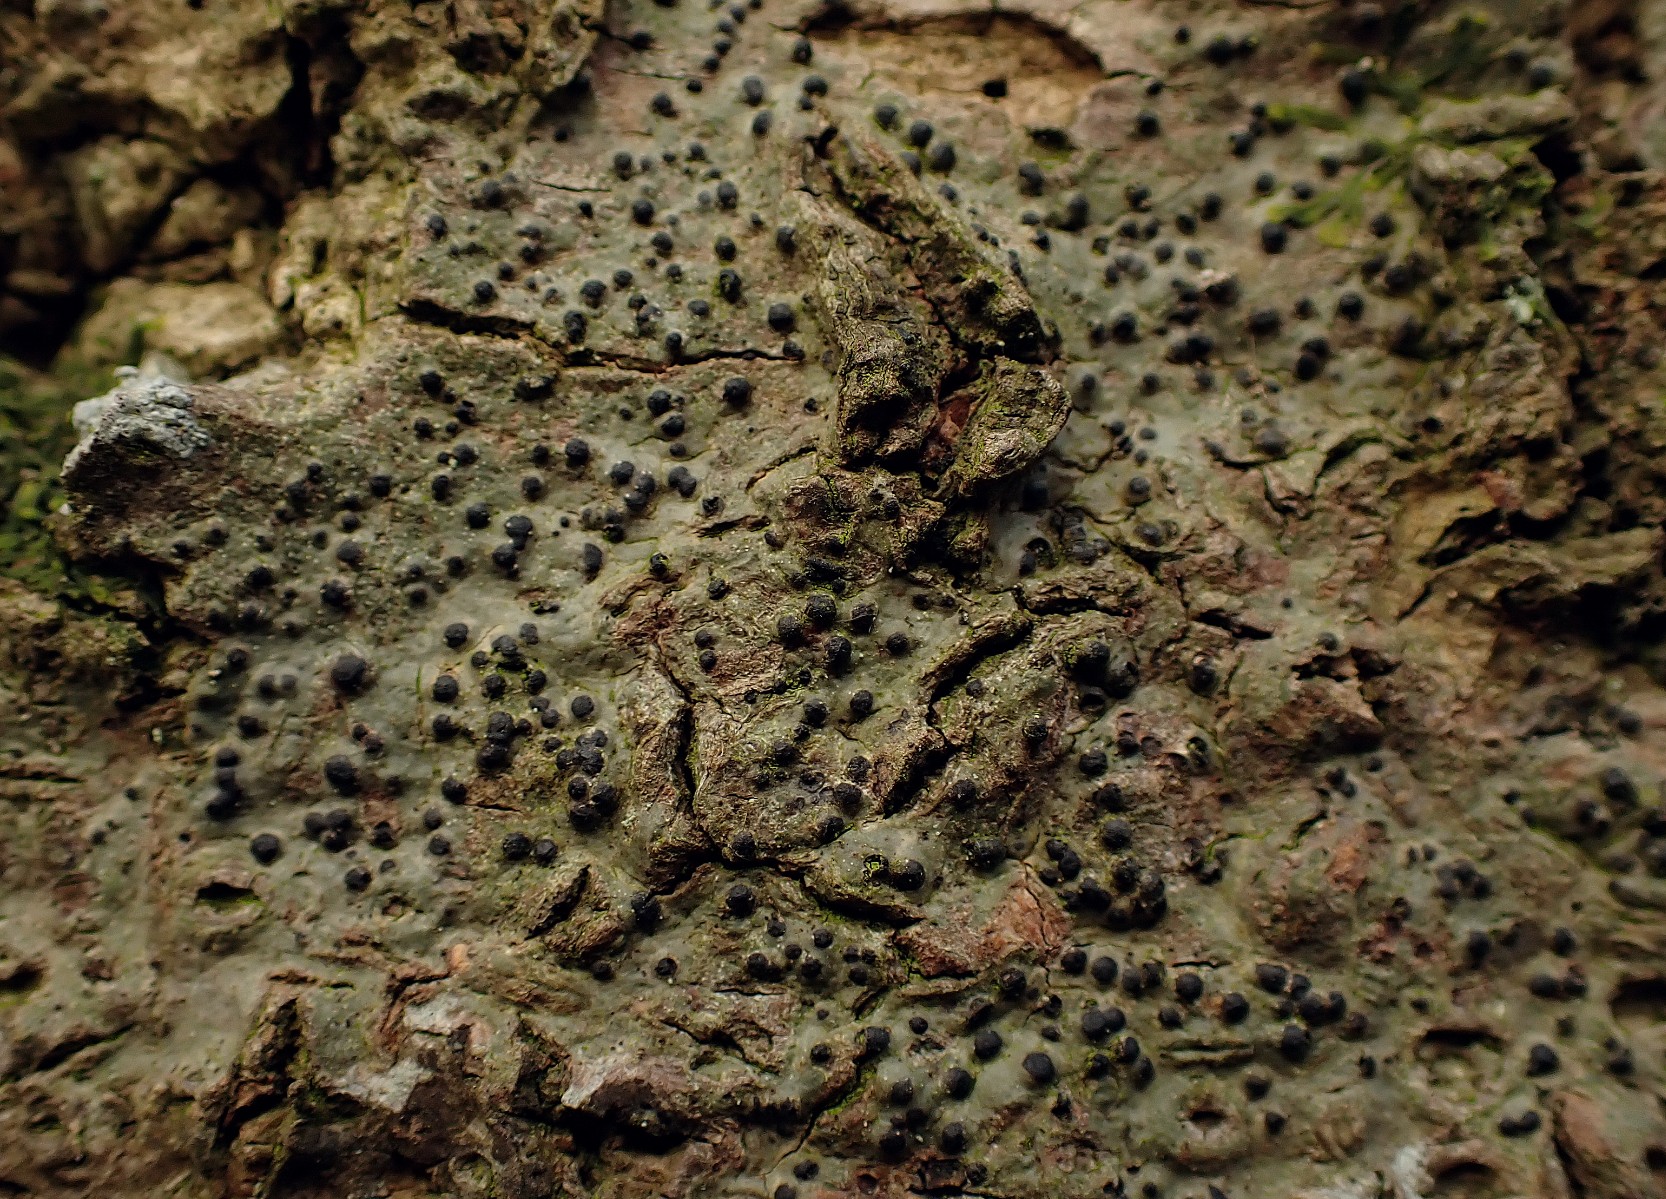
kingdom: Fungi
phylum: Ascomycota
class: Eurotiomycetes
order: Pyrenulales
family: Pyrenulaceae
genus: Pyrenula
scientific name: Pyrenula nitida
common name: glinsende kernelav
